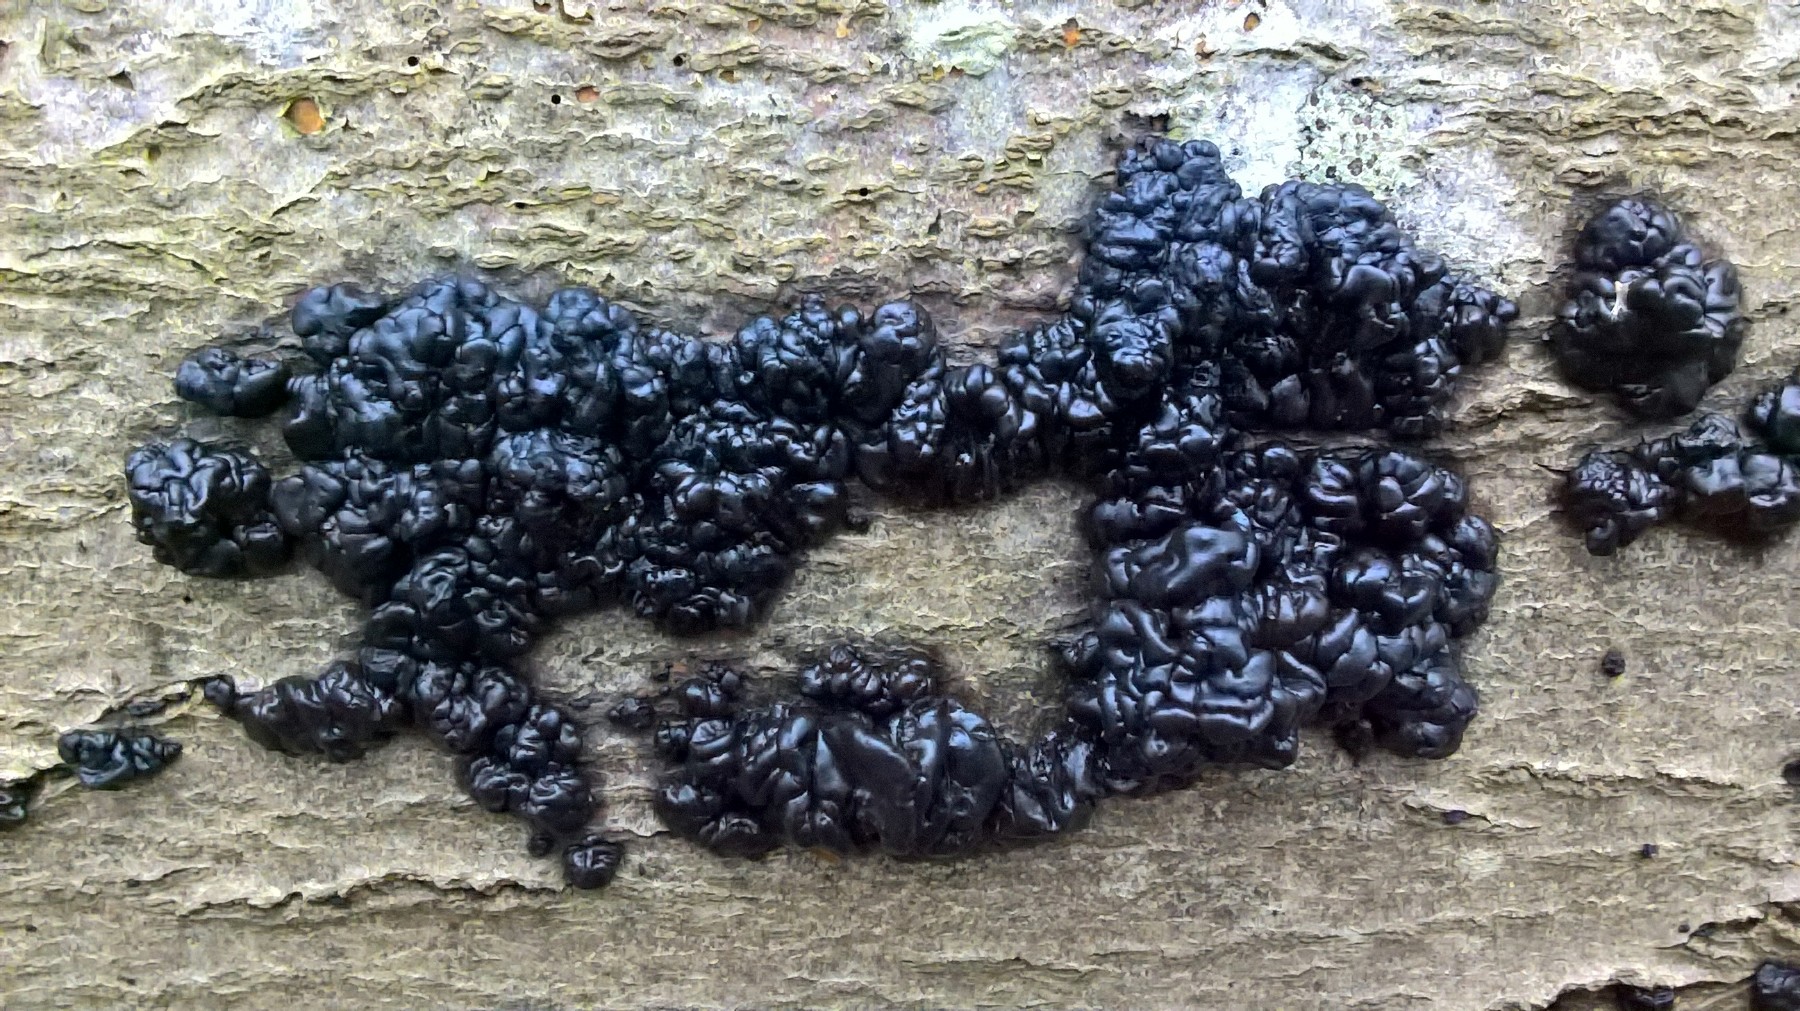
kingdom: Fungi
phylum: Basidiomycota
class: Agaricomycetes
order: Auriculariales
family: Auriculariaceae
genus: Exidia
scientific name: Exidia nigricans
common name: almindelig bævretop
